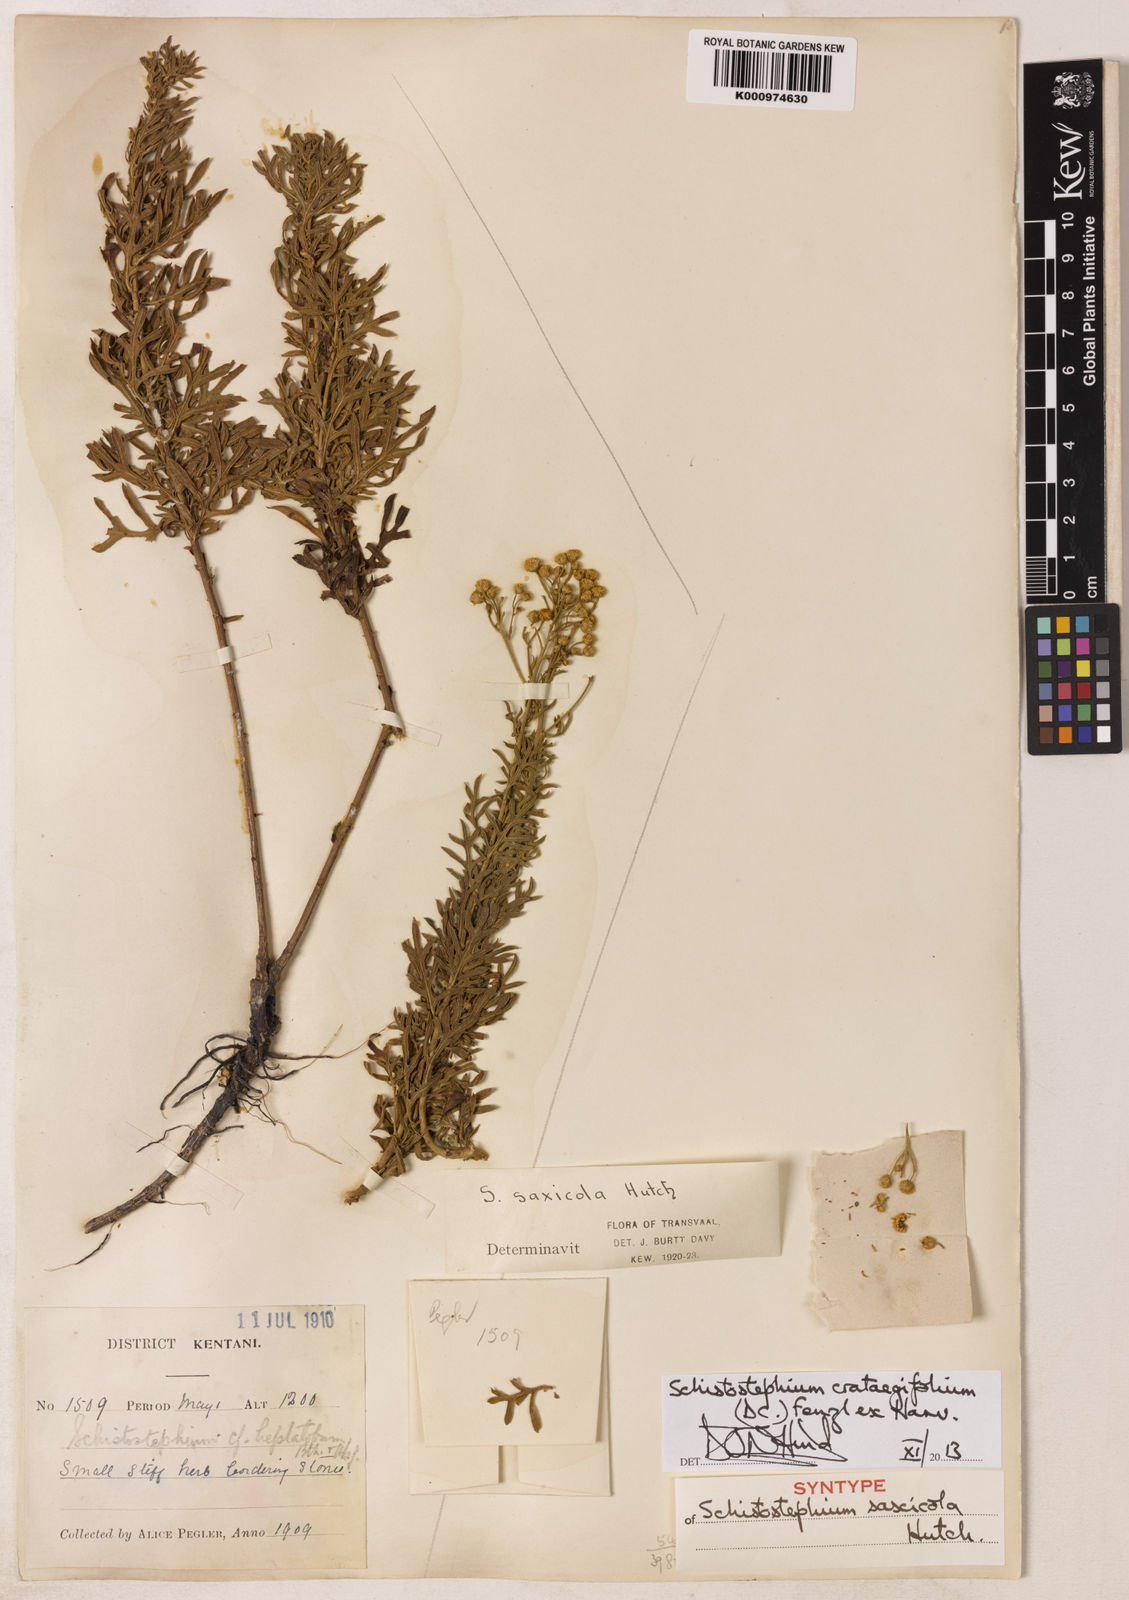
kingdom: Plantae
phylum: Tracheophyta
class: Magnoliopsida
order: Asterales
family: Asteraceae
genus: Schistostephium
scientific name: Schistostephium crataegifolium
